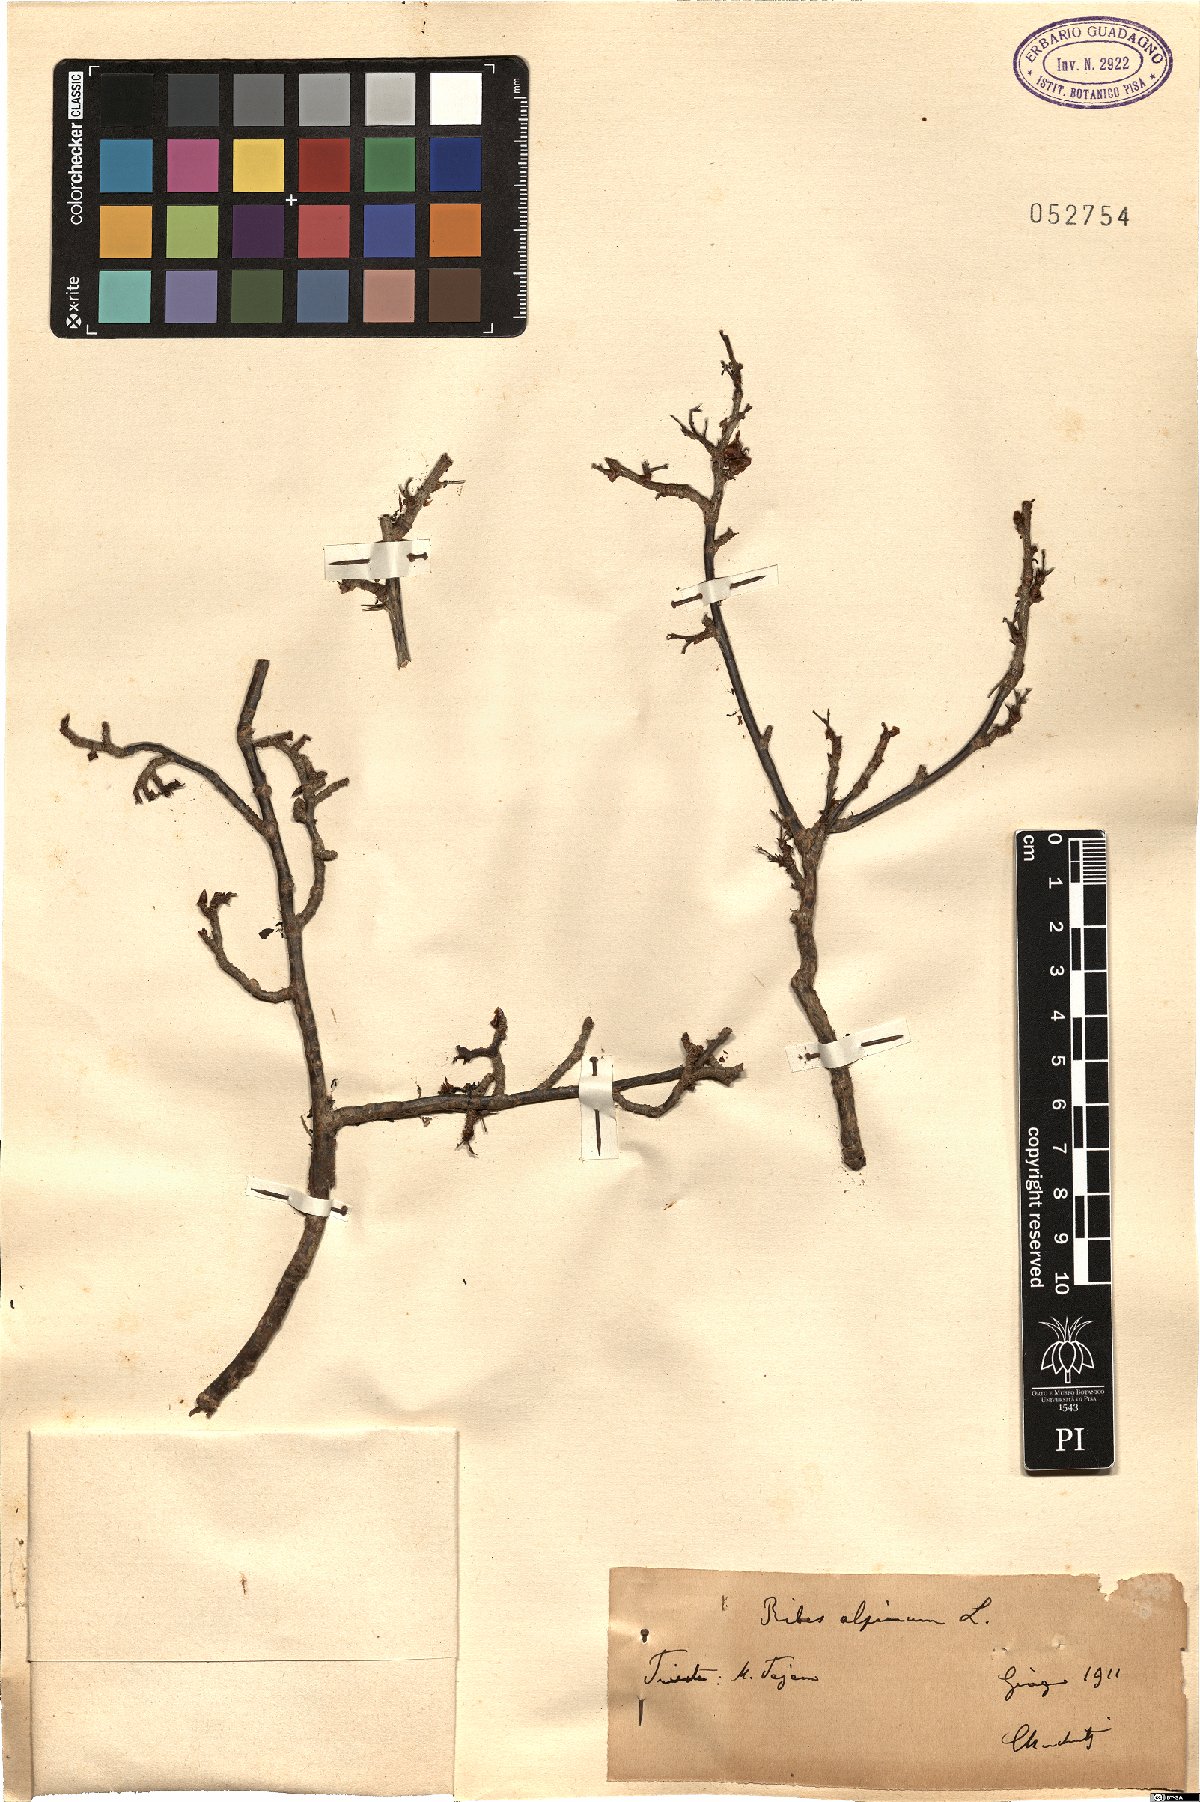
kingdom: Plantae
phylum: Tracheophyta
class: Magnoliopsida
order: Saxifragales
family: Grossulariaceae
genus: Ribes
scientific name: Ribes alpinum
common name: Alpine currant
